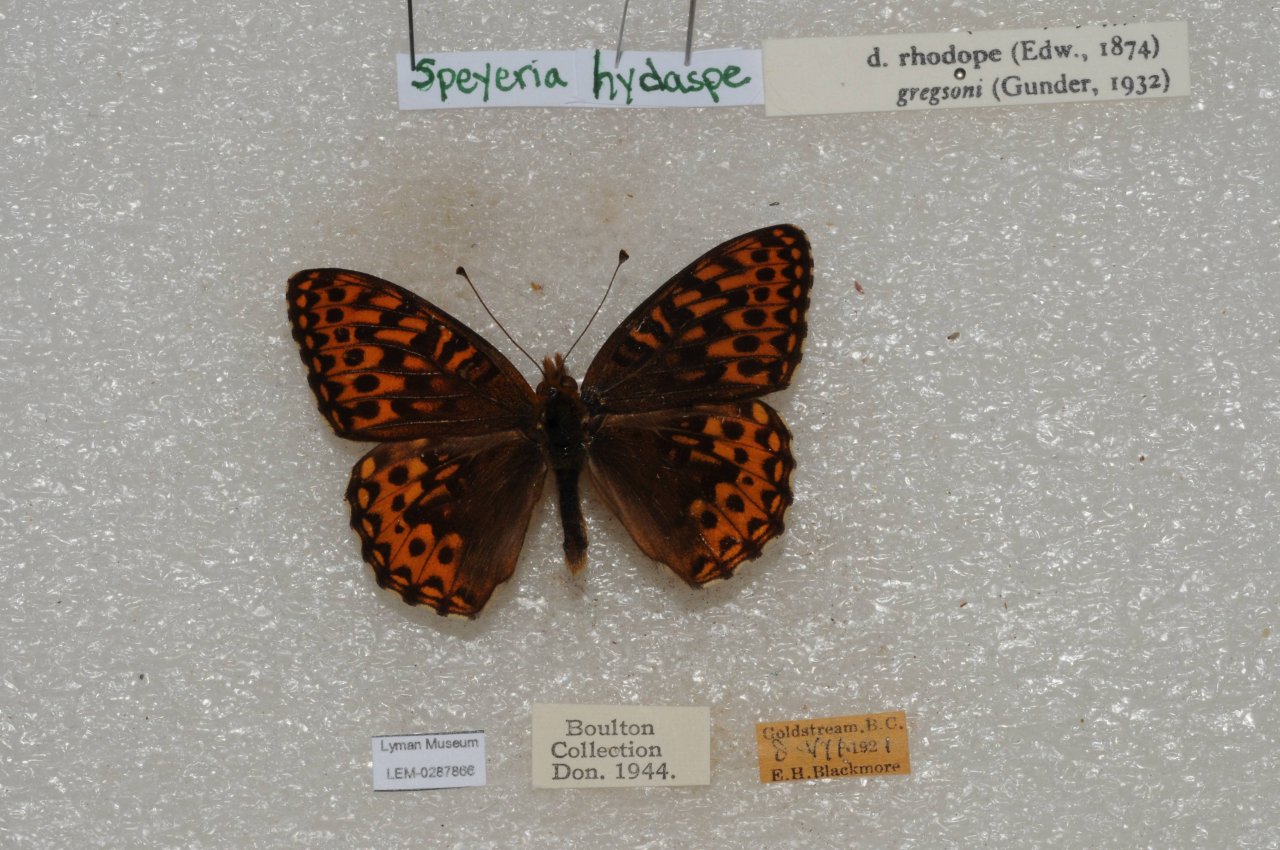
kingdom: Animalia
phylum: Arthropoda
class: Insecta
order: Lepidoptera
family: Nymphalidae
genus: Speyeria
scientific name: Speyeria hydaspe
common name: Hydaspe Fritillary
